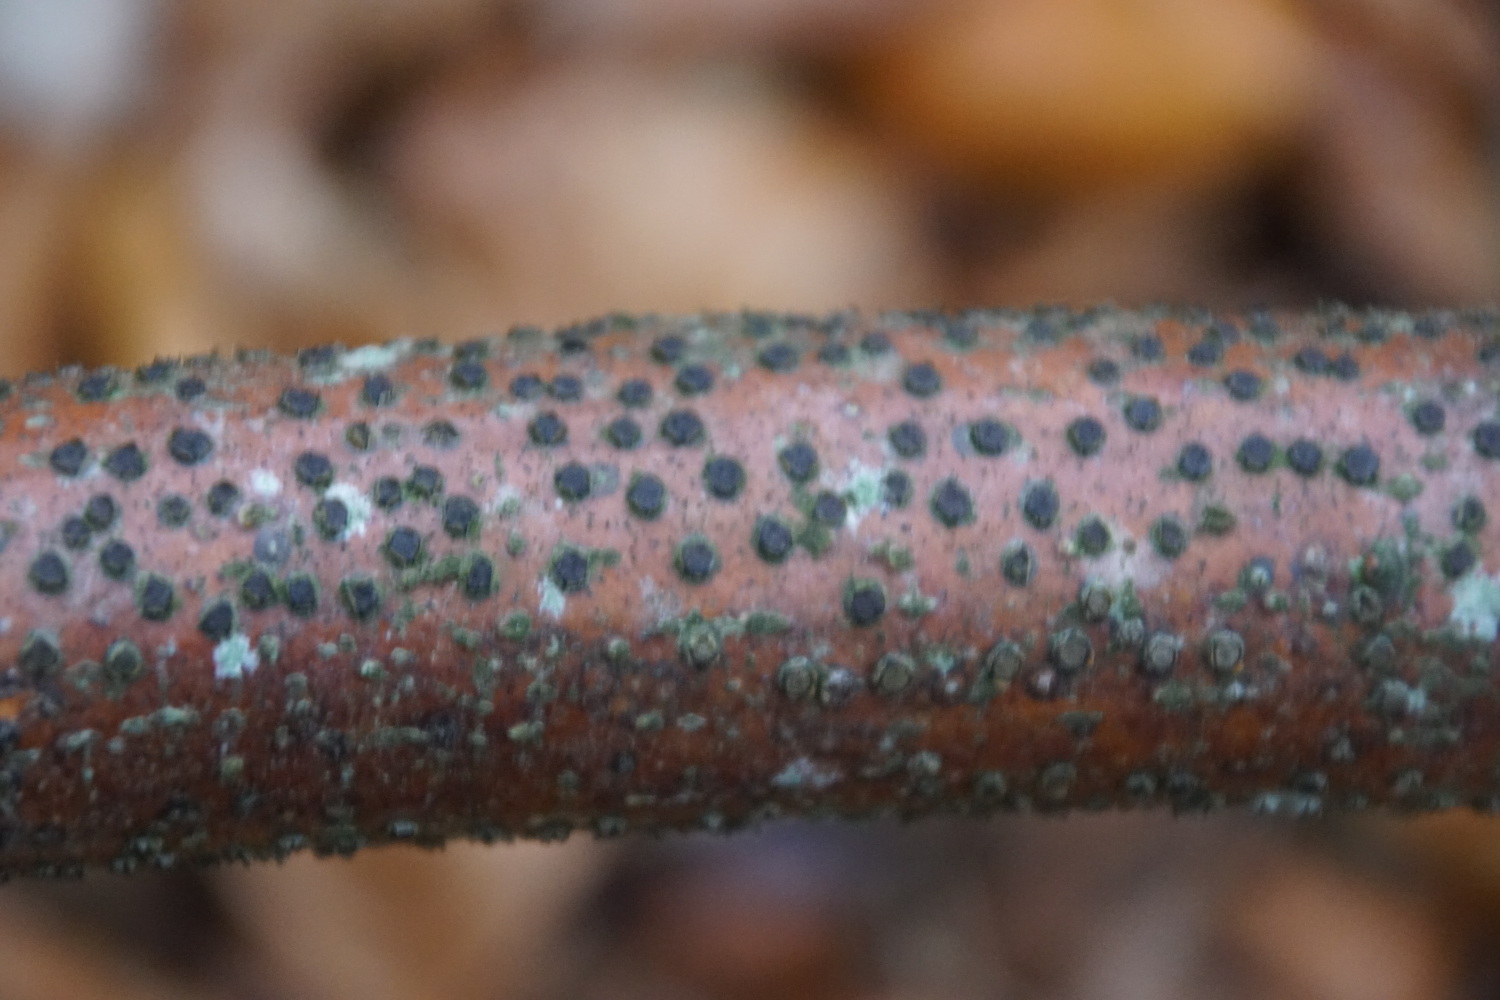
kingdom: Fungi
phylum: Ascomycota
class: Sordariomycetes
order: Xylariales
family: Diatrypaceae
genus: Diatrype
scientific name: Diatrype disciformis
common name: kant-kulskorpe
